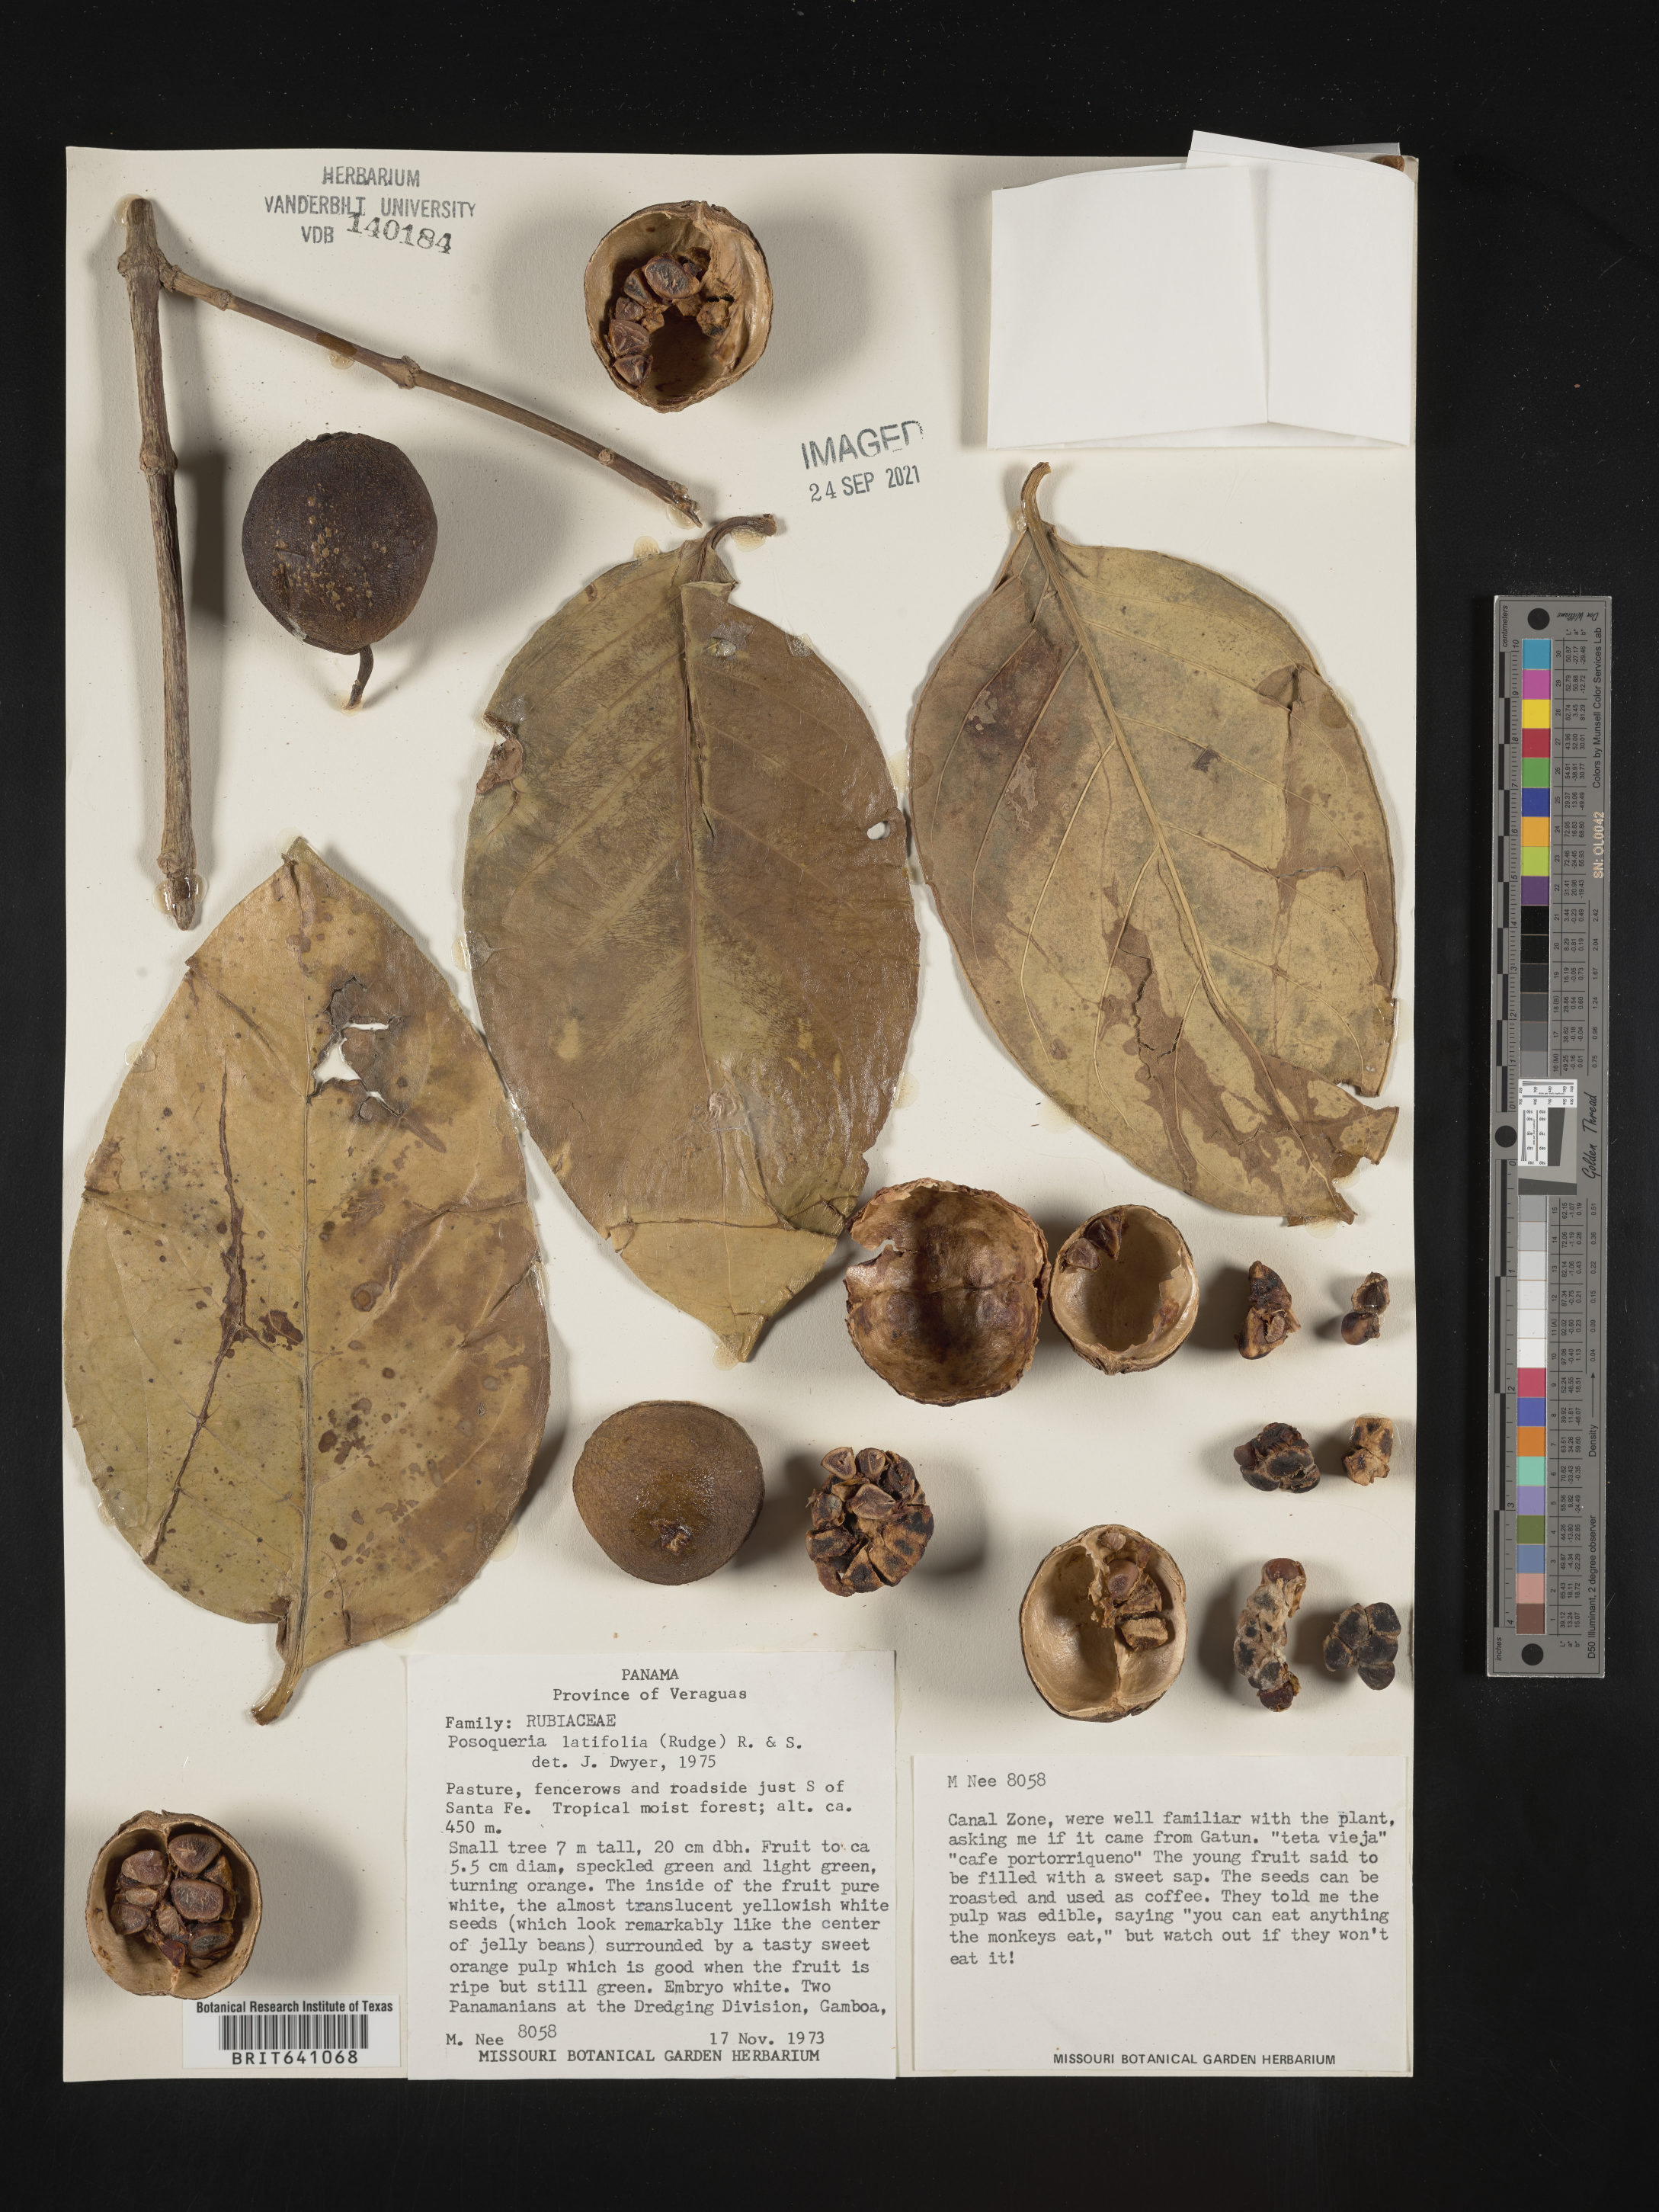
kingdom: Plantae
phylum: Tracheophyta
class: Magnoliopsida
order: Gentianales
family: Rubiaceae
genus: Posoqueria
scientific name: Posoqueria
